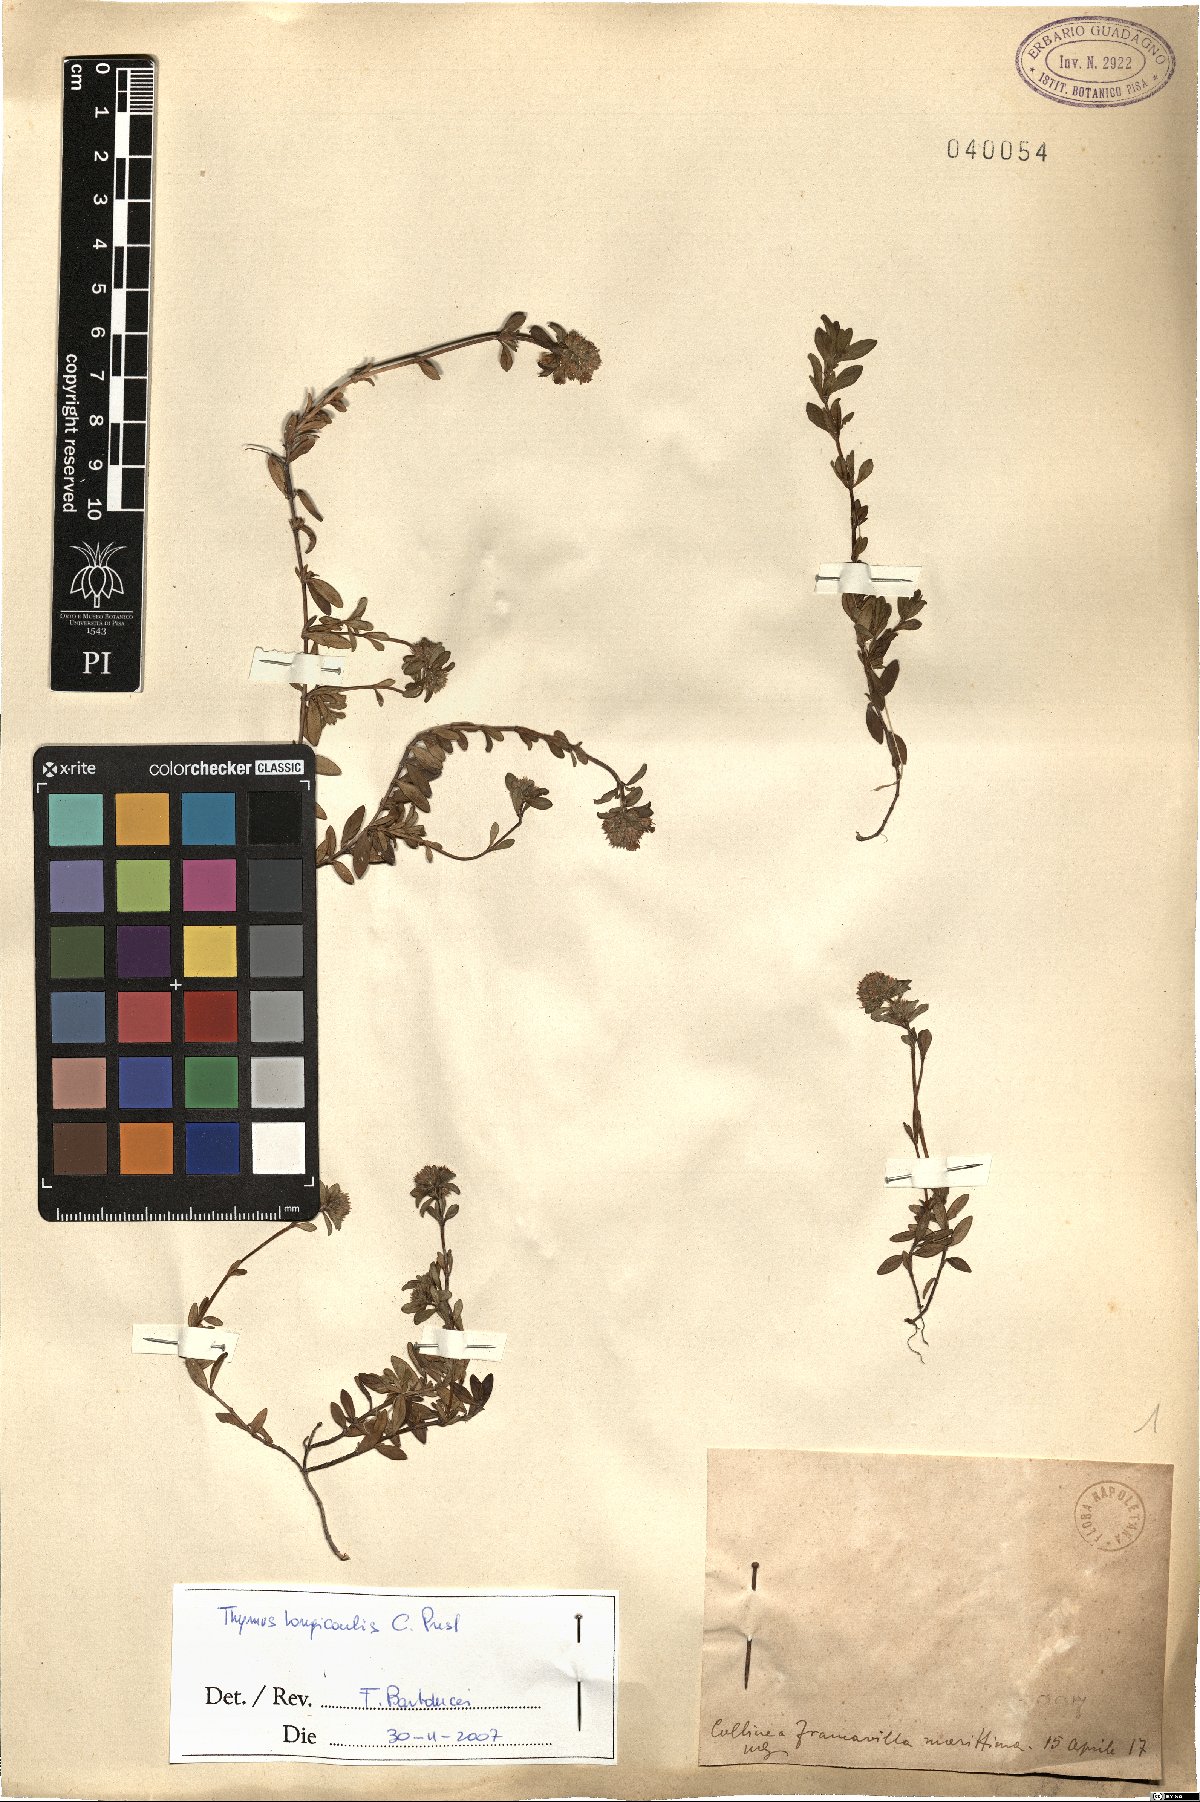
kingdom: Plantae
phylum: Tracheophyta
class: Magnoliopsida
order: Lamiales
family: Lamiaceae
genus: Thymus
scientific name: Thymus longicaulis
